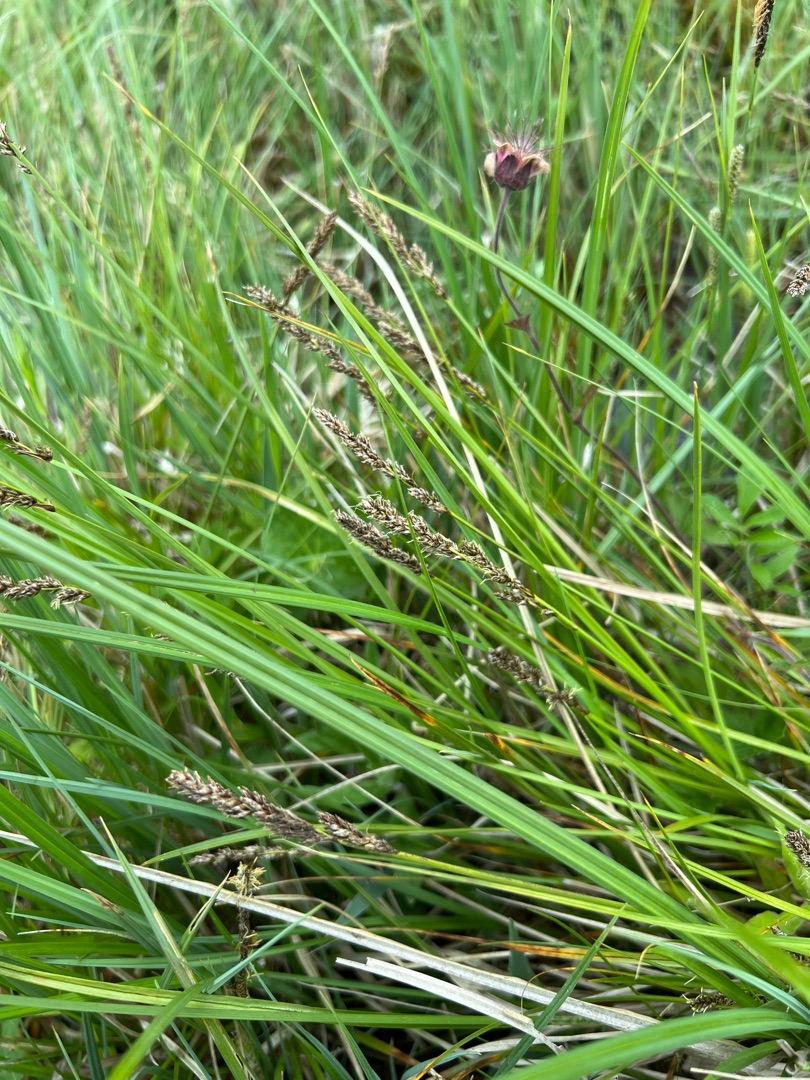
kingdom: Plantae
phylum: Tracheophyta
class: Liliopsida
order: Poales
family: Cyperaceae
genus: Carex
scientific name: Carex paniculata
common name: Top-star
